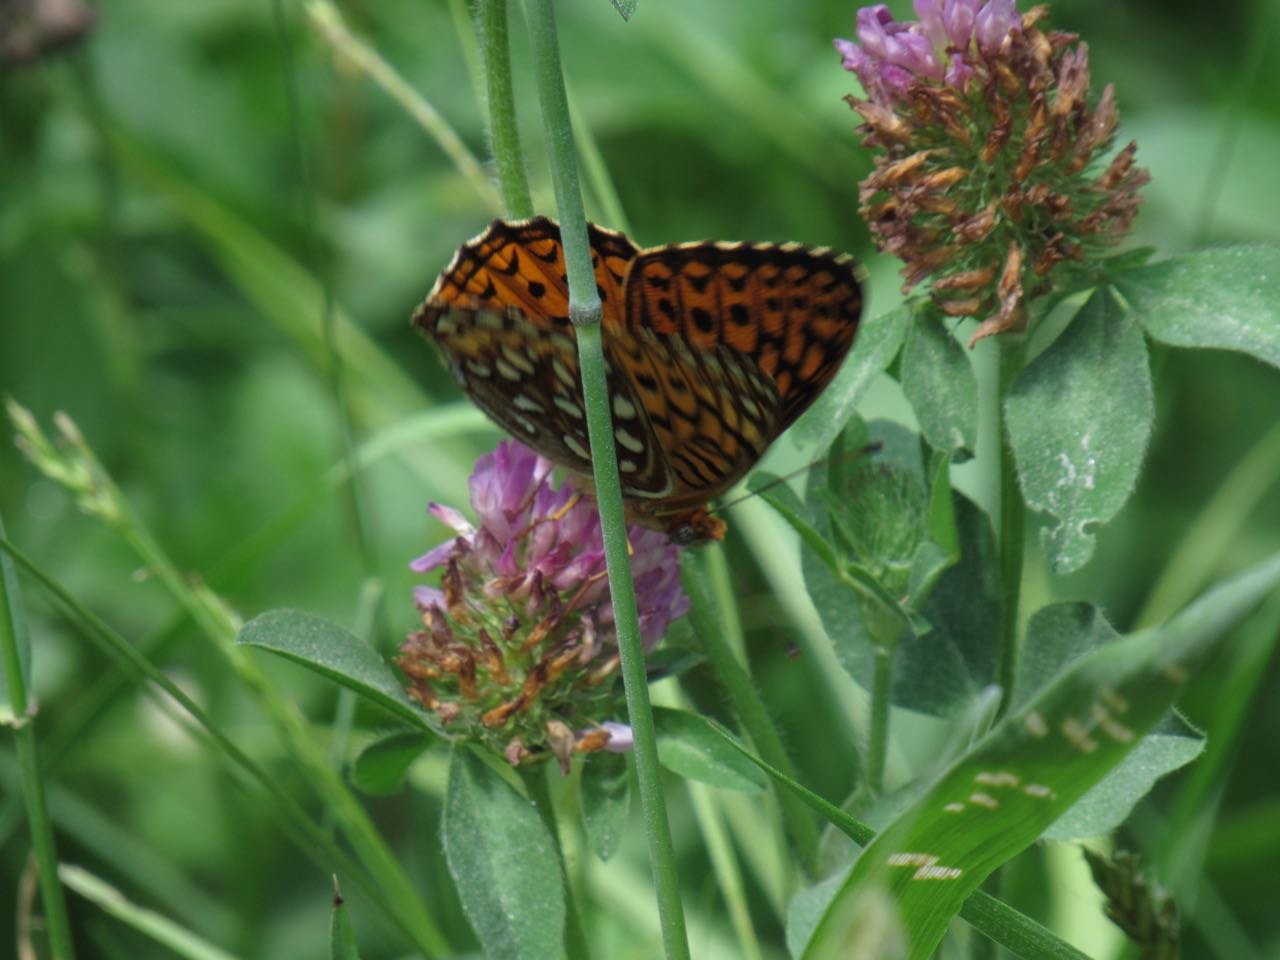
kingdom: Animalia
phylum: Arthropoda
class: Insecta
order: Lepidoptera
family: Nymphalidae
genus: Speyeria
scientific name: Speyeria atlantis
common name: Atlantis Fritillary
